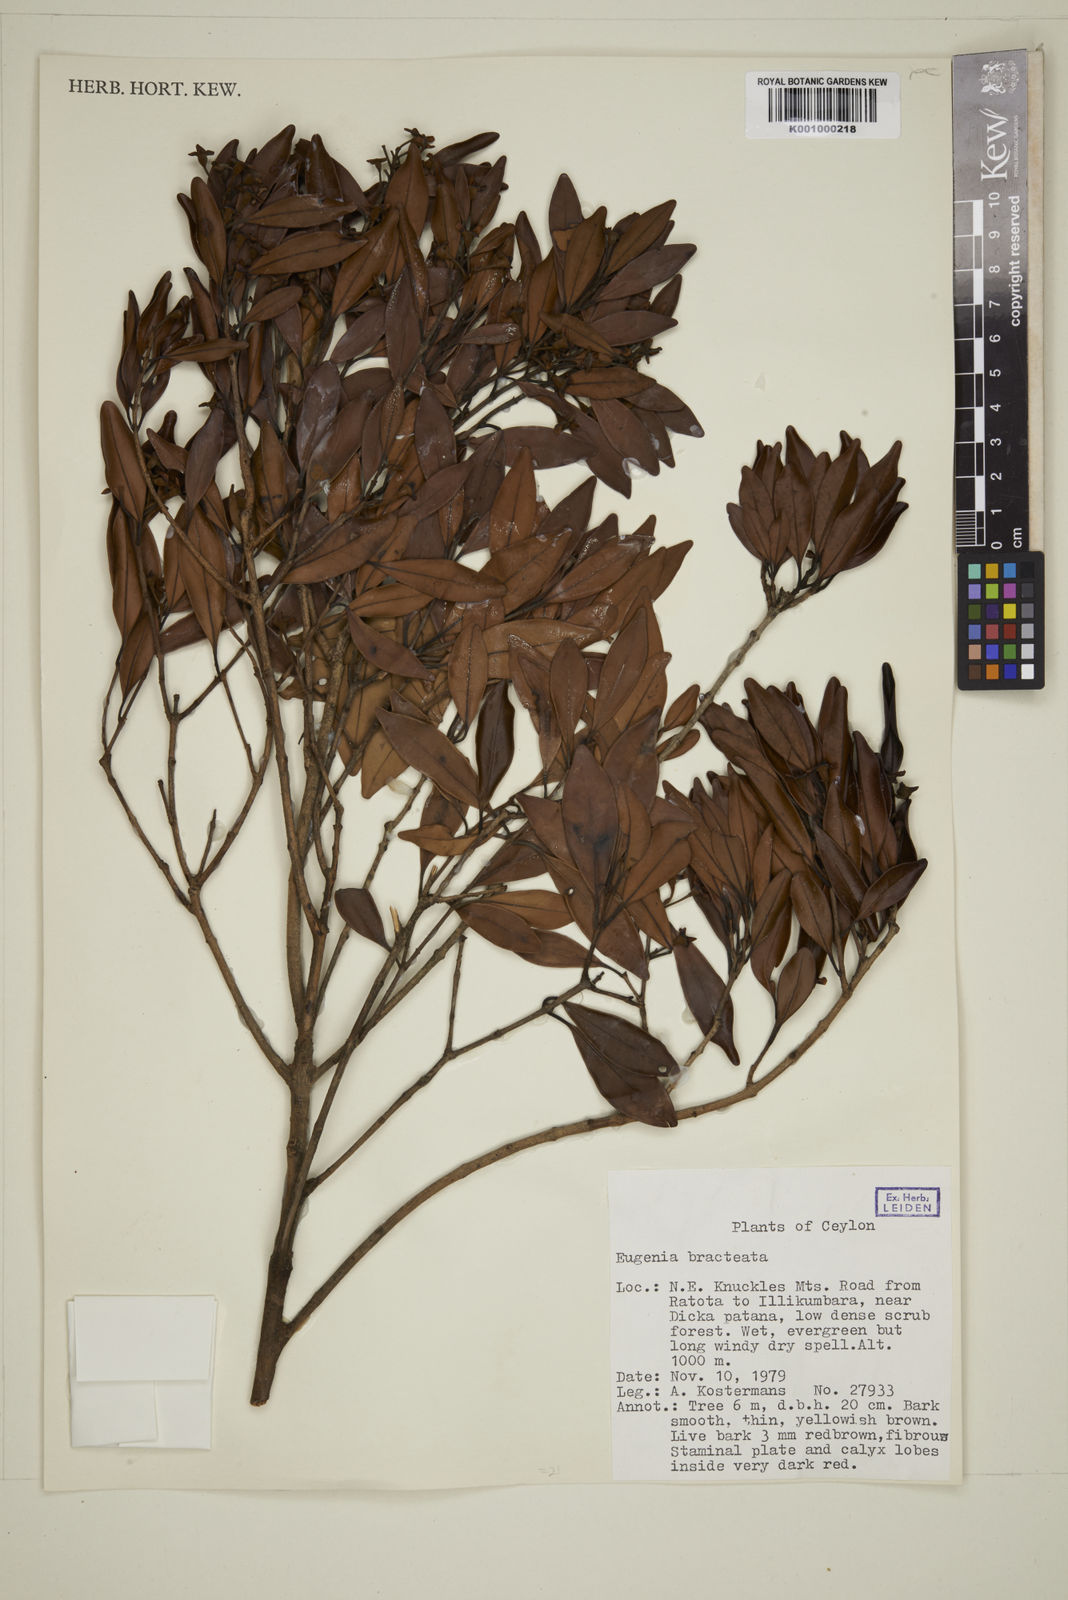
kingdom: Plantae
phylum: Tracheophyta
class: Magnoliopsida
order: Myrtales
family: Myrtaceae
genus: Eugenia
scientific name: Eugenia pseudopsidium
